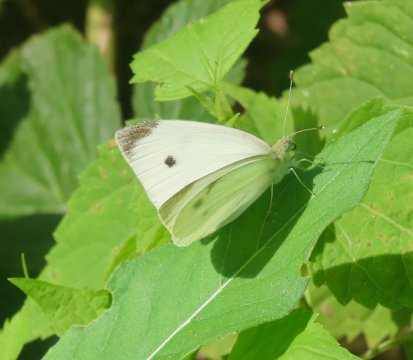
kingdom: Animalia
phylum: Arthropoda
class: Insecta
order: Lepidoptera
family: Pieridae
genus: Pieris
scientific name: Pieris rapae
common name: Cabbage White
